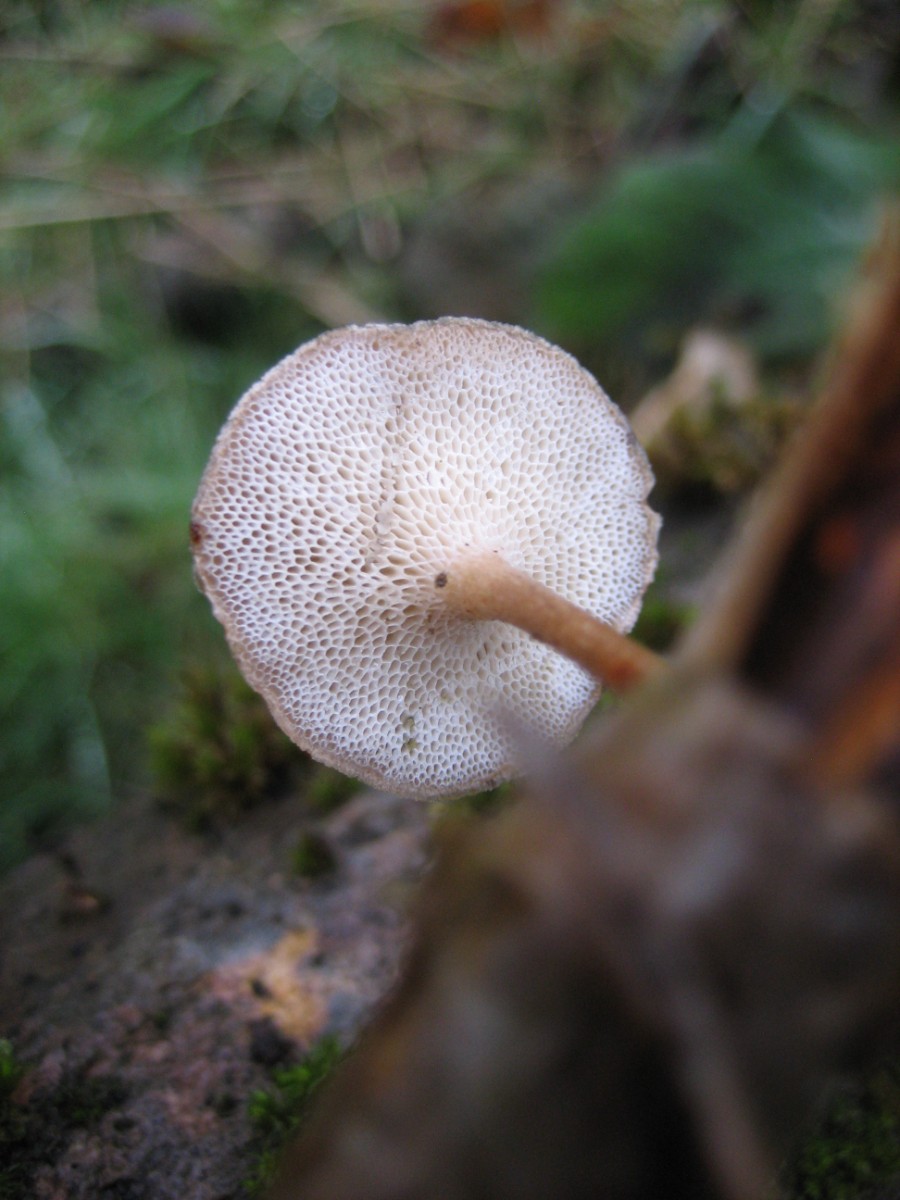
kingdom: Fungi
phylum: Basidiomycota
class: Agaricomycetes
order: Polyporales
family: Polyporaceae
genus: Lentinus
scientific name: Lentinus brumalis
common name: vinter-stilkporesvamp
